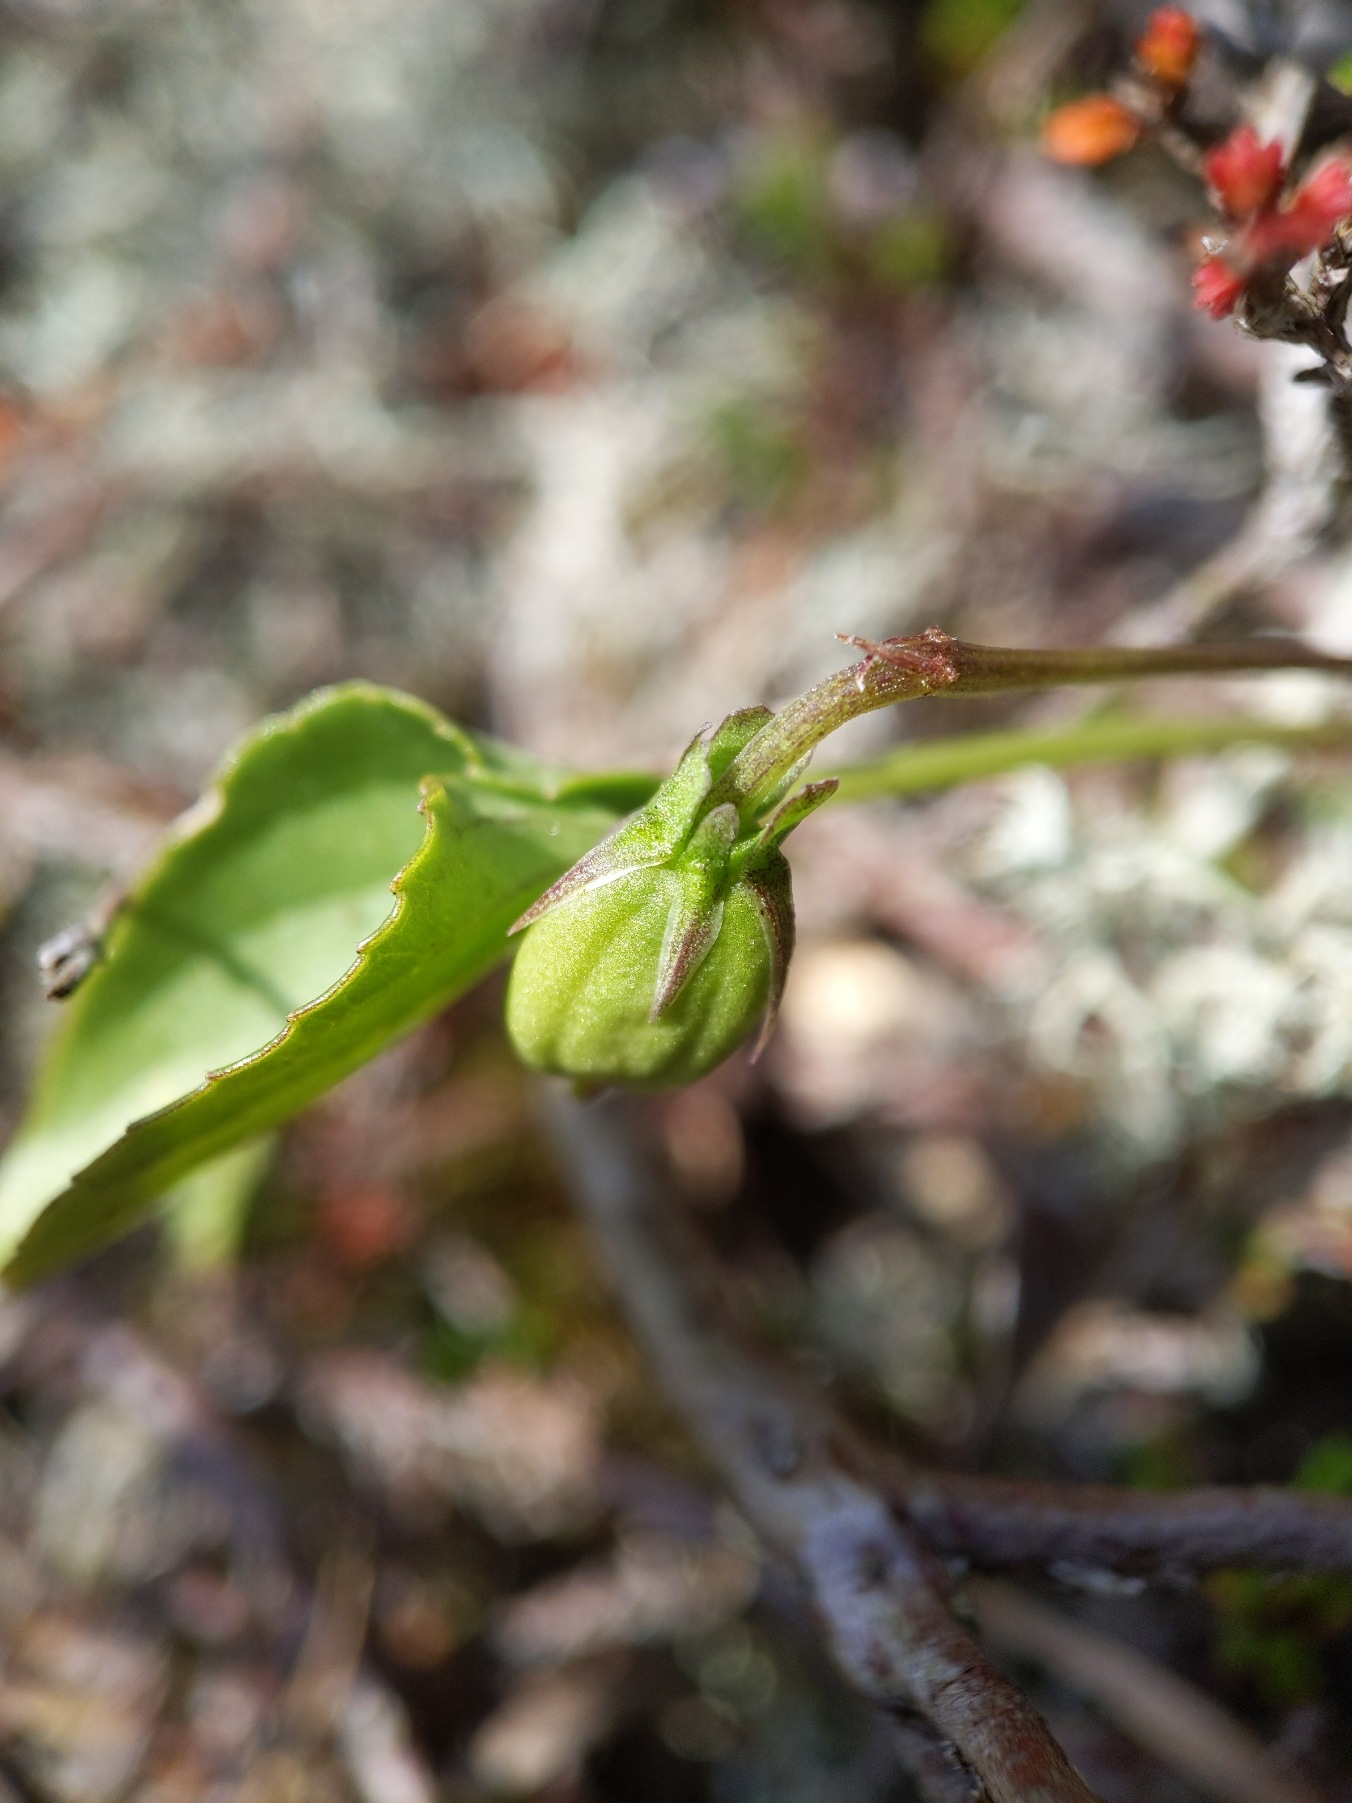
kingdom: Plantae
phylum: Tracheophyta
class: Magnoliopsida
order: Malpighiales
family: Violaceae
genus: Viola
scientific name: Viola canina
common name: Hunde-viol
